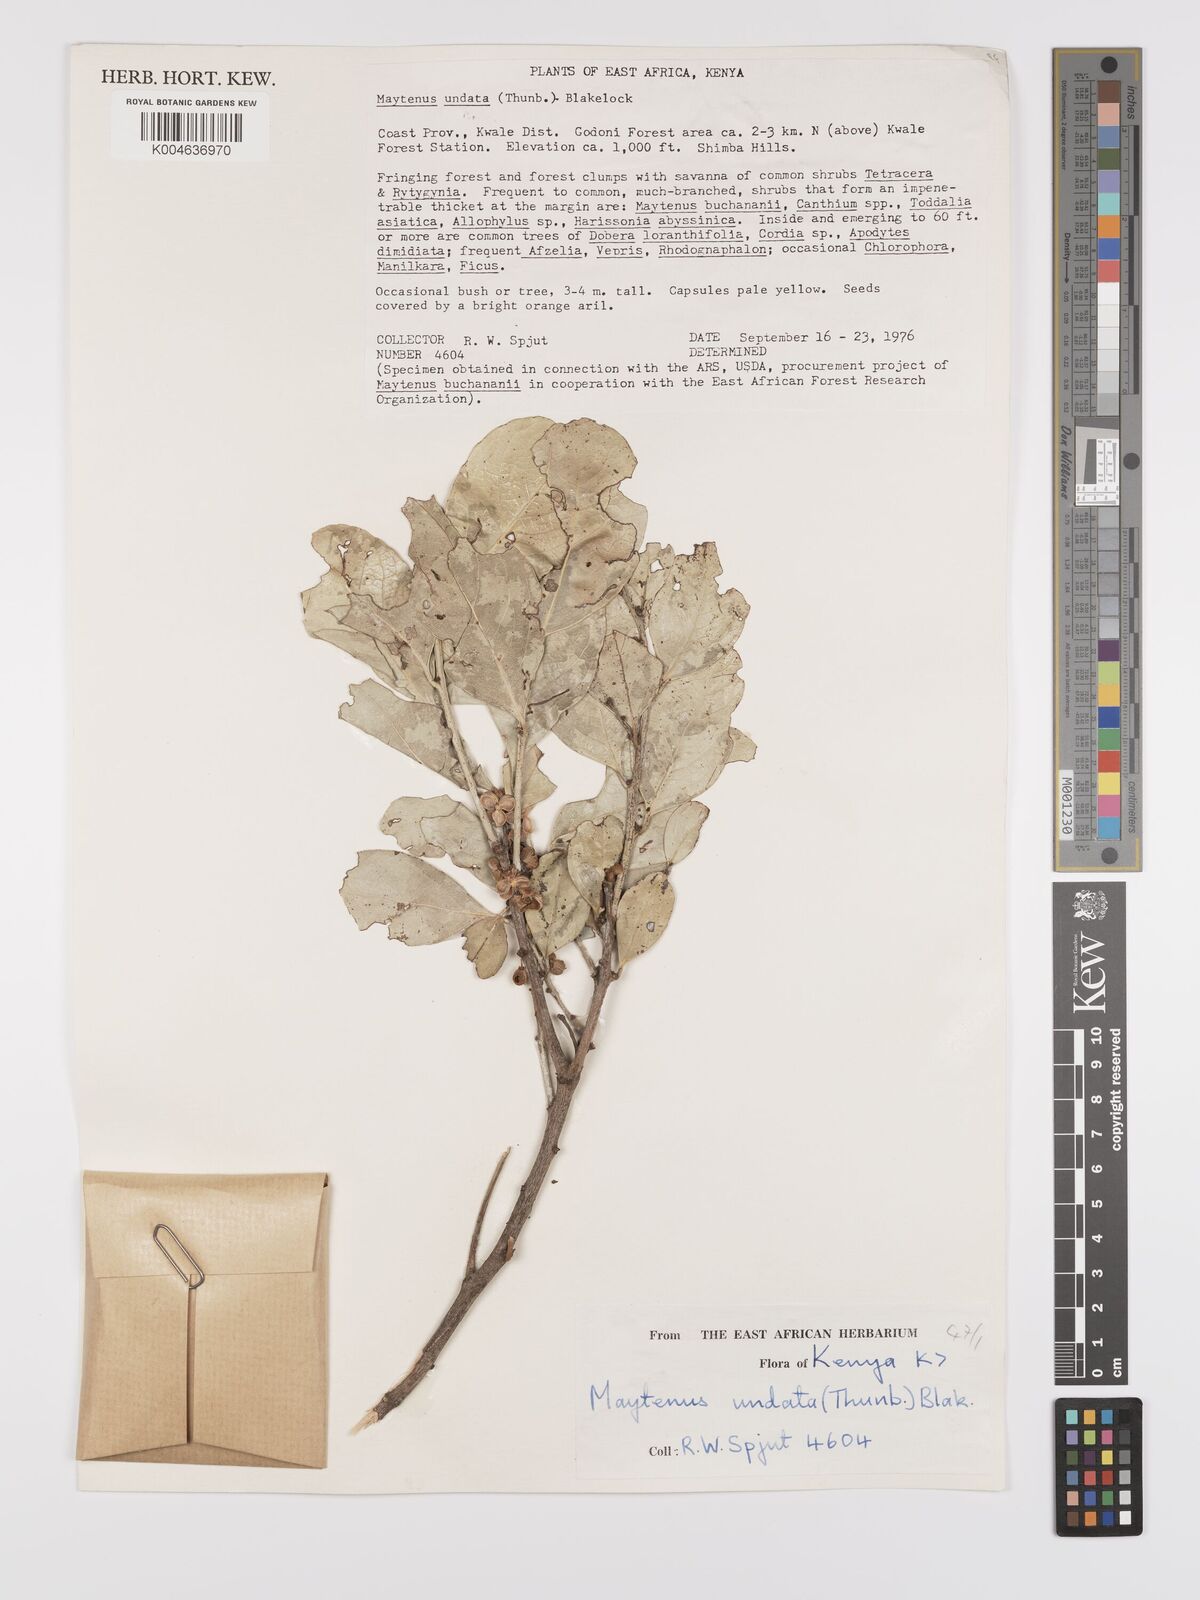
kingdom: Plantae
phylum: Tracheophyta
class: Magnoliopsida
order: Celastrales
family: Celastraceae
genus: Gymnosporia
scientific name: Gymnosporia undata
